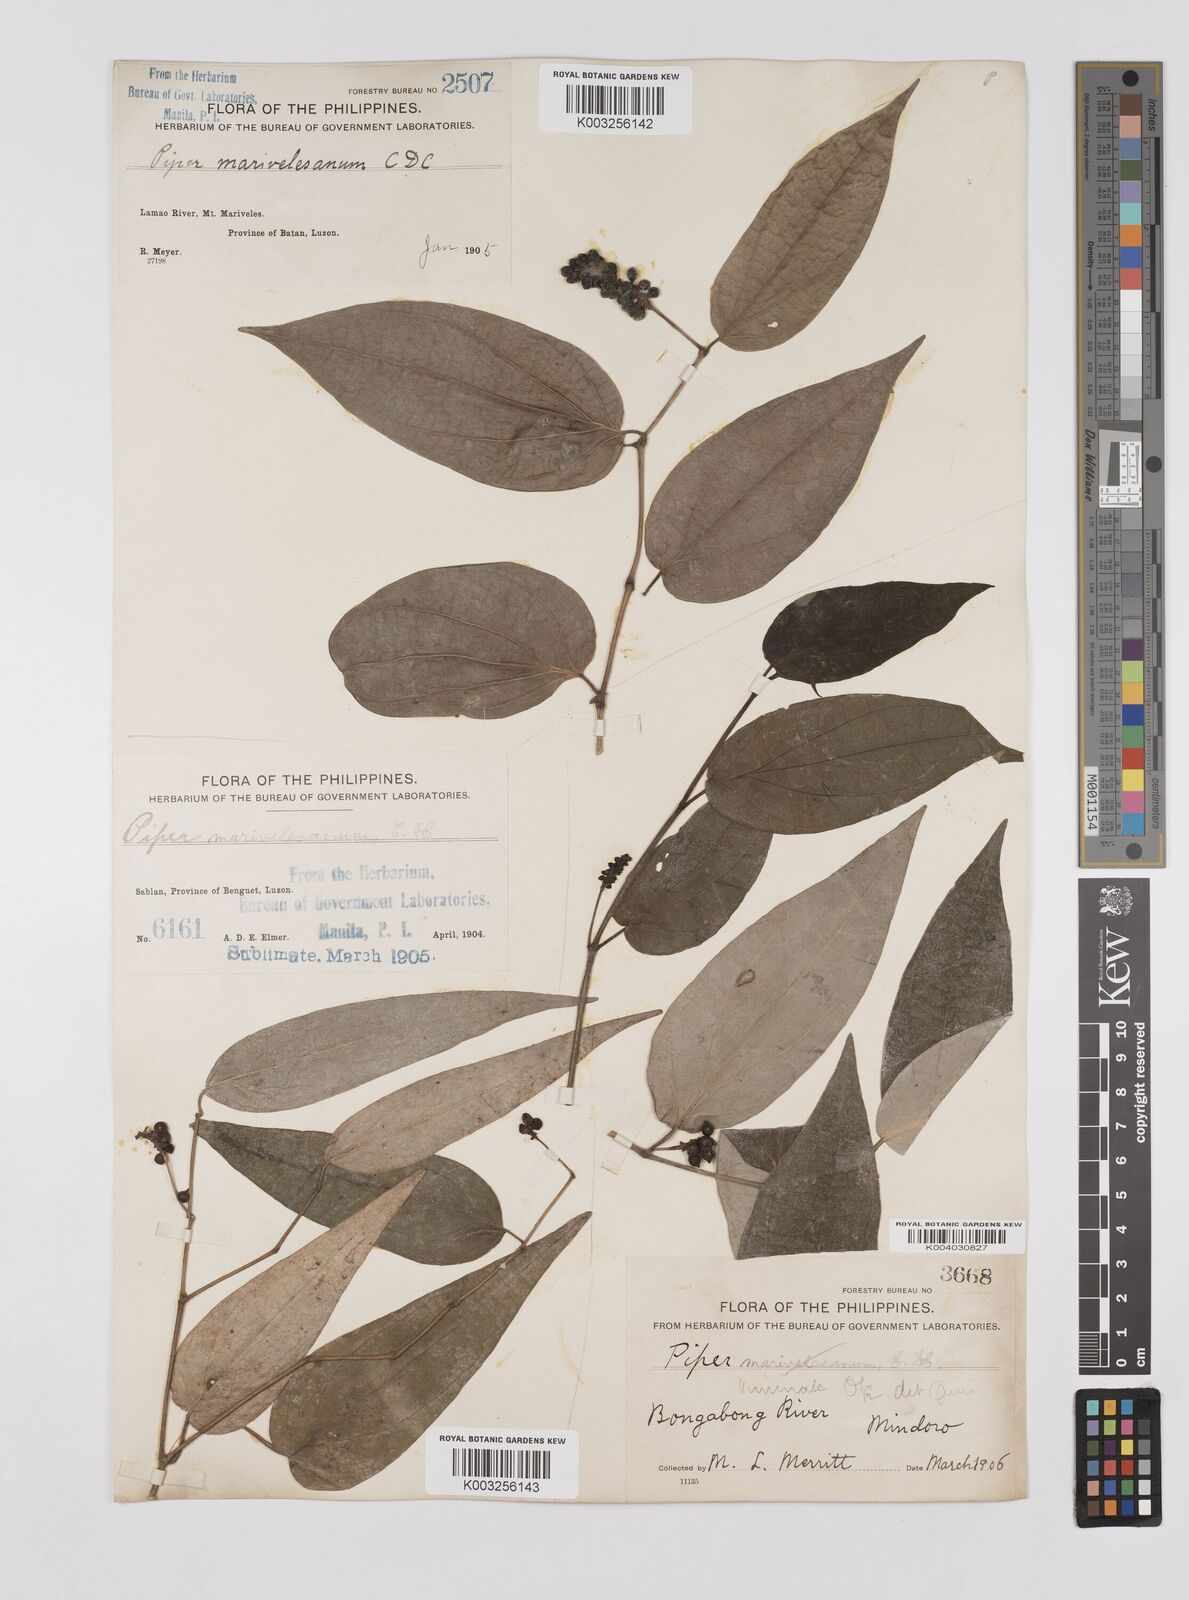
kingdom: Plantae
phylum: Tracheophyta
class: Magnoliopsida
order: Piperales
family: Piperaceae
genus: Piper
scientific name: Piper lanatum
